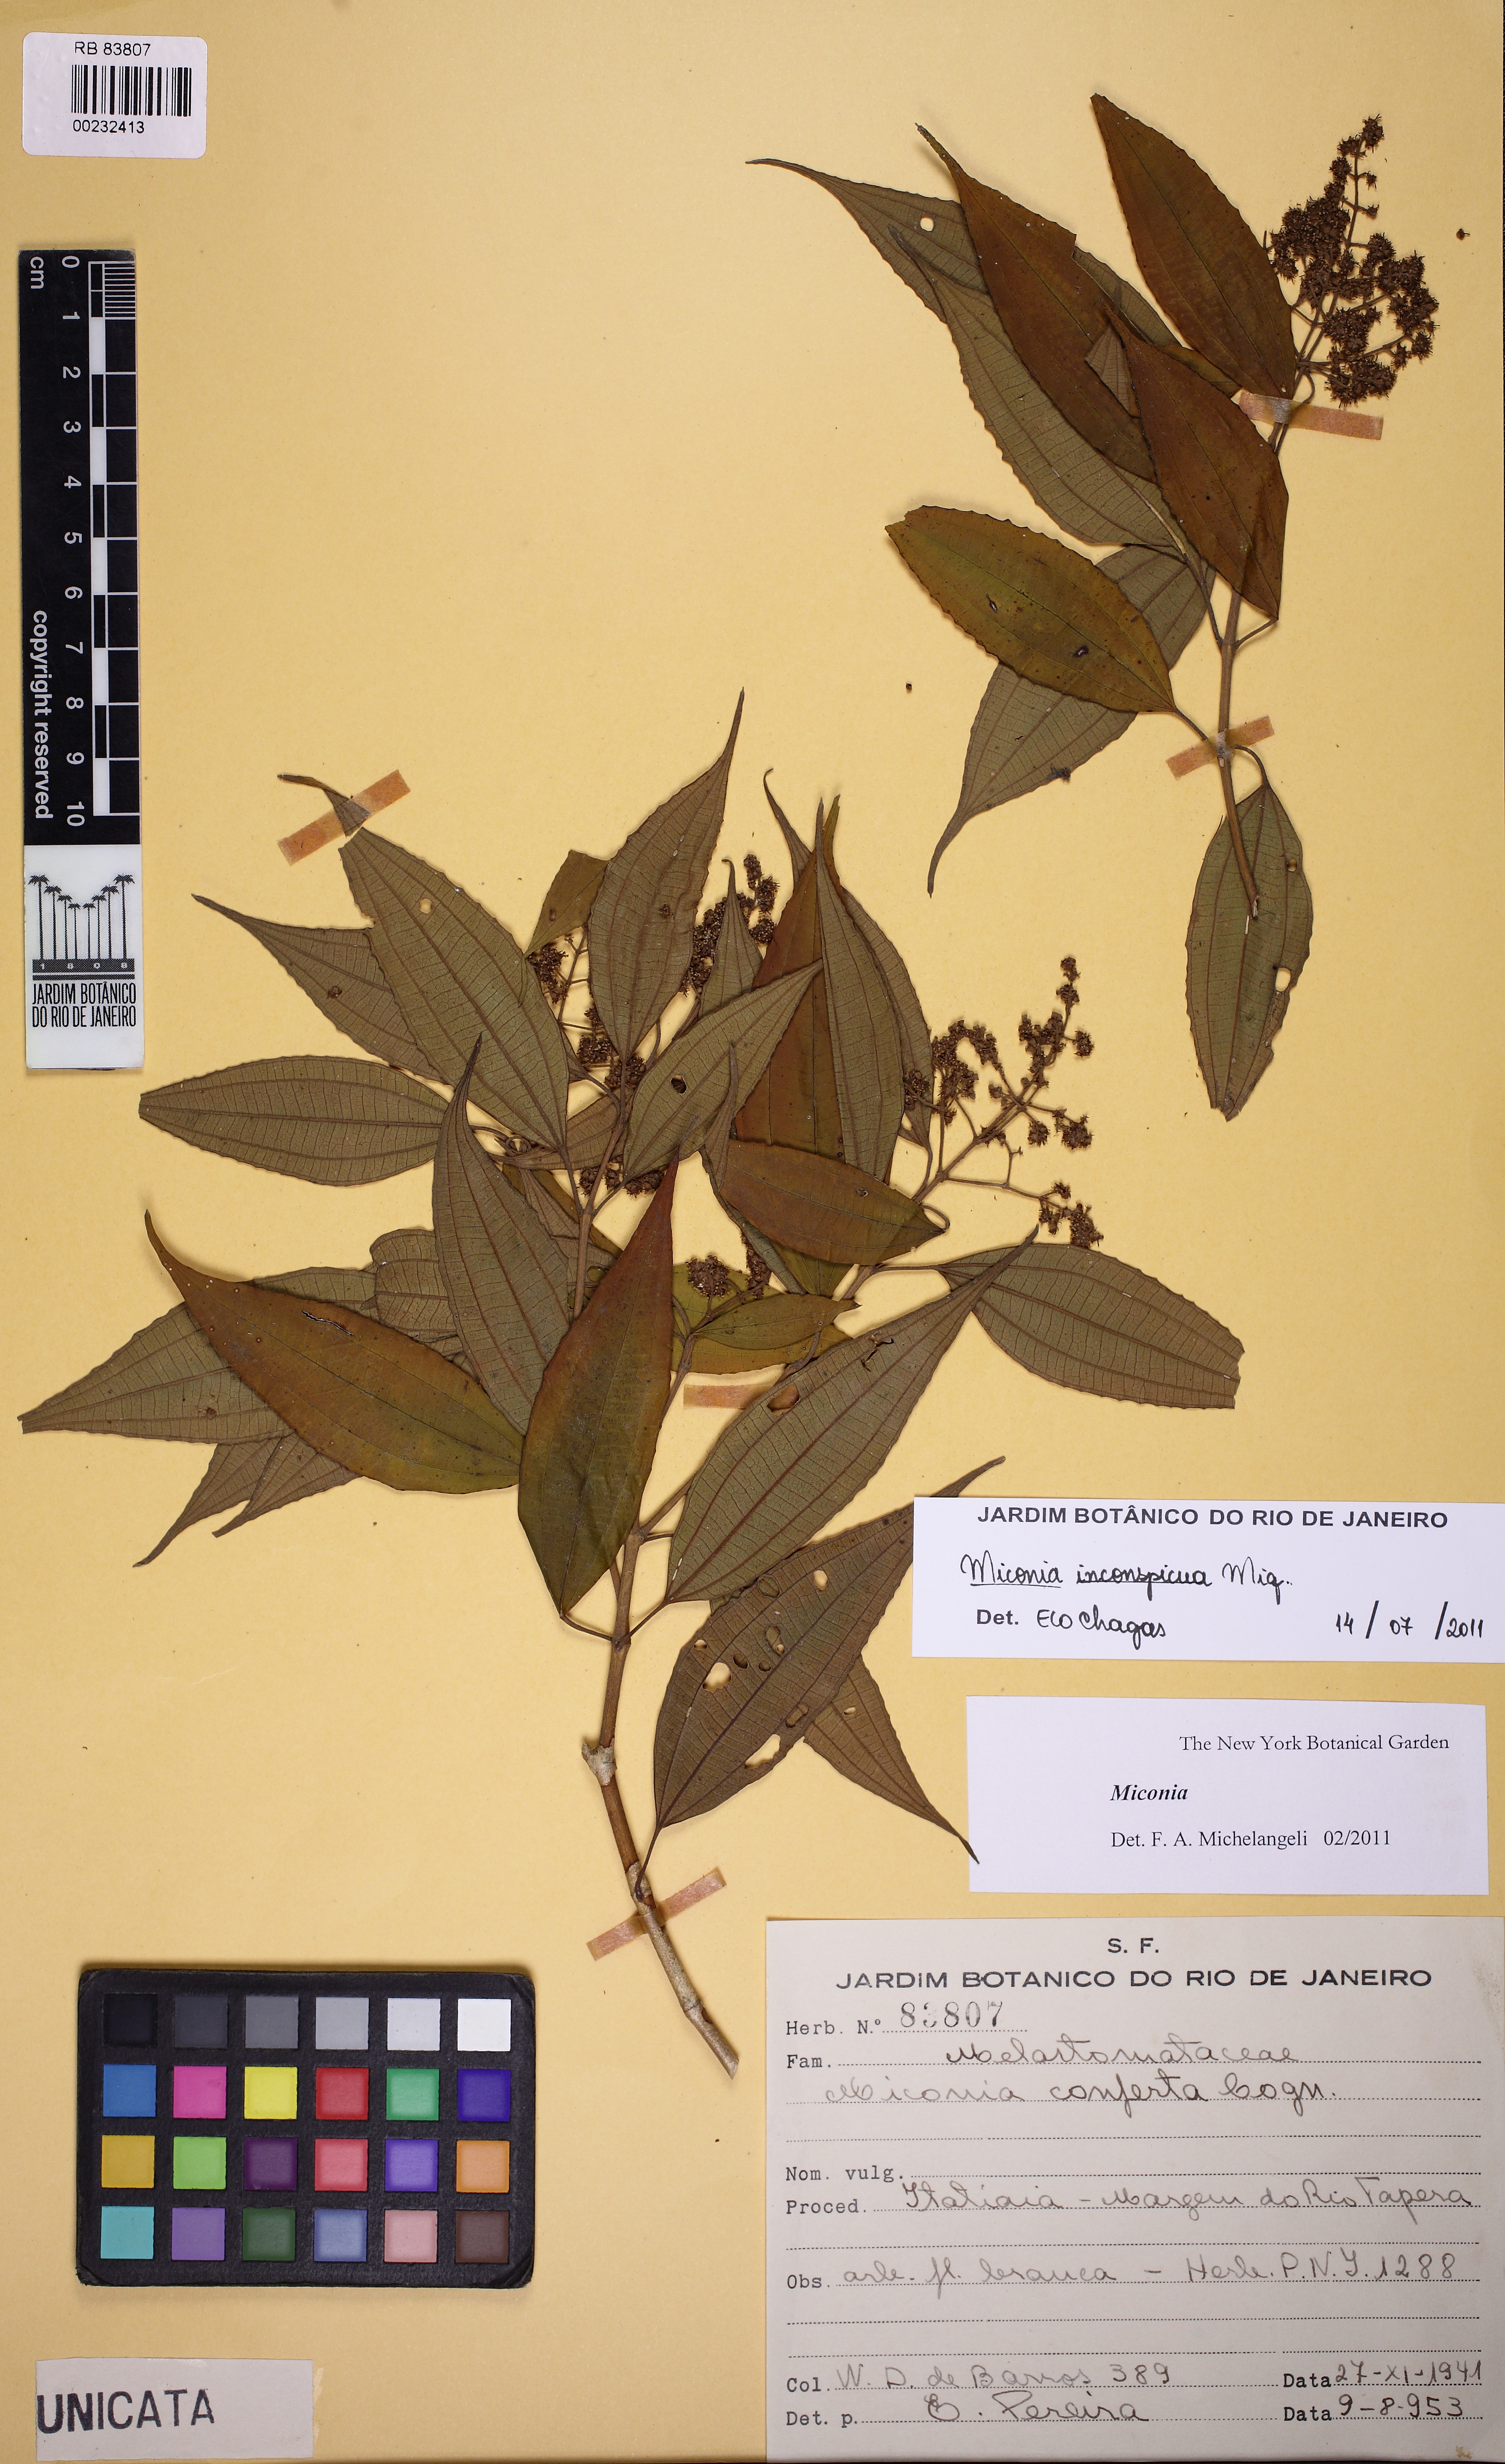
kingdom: Plantae
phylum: Tracheophyta
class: Magnoliopsida
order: Myrtales
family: Melastomataceae
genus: Miconia
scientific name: Miconia inconspicua
